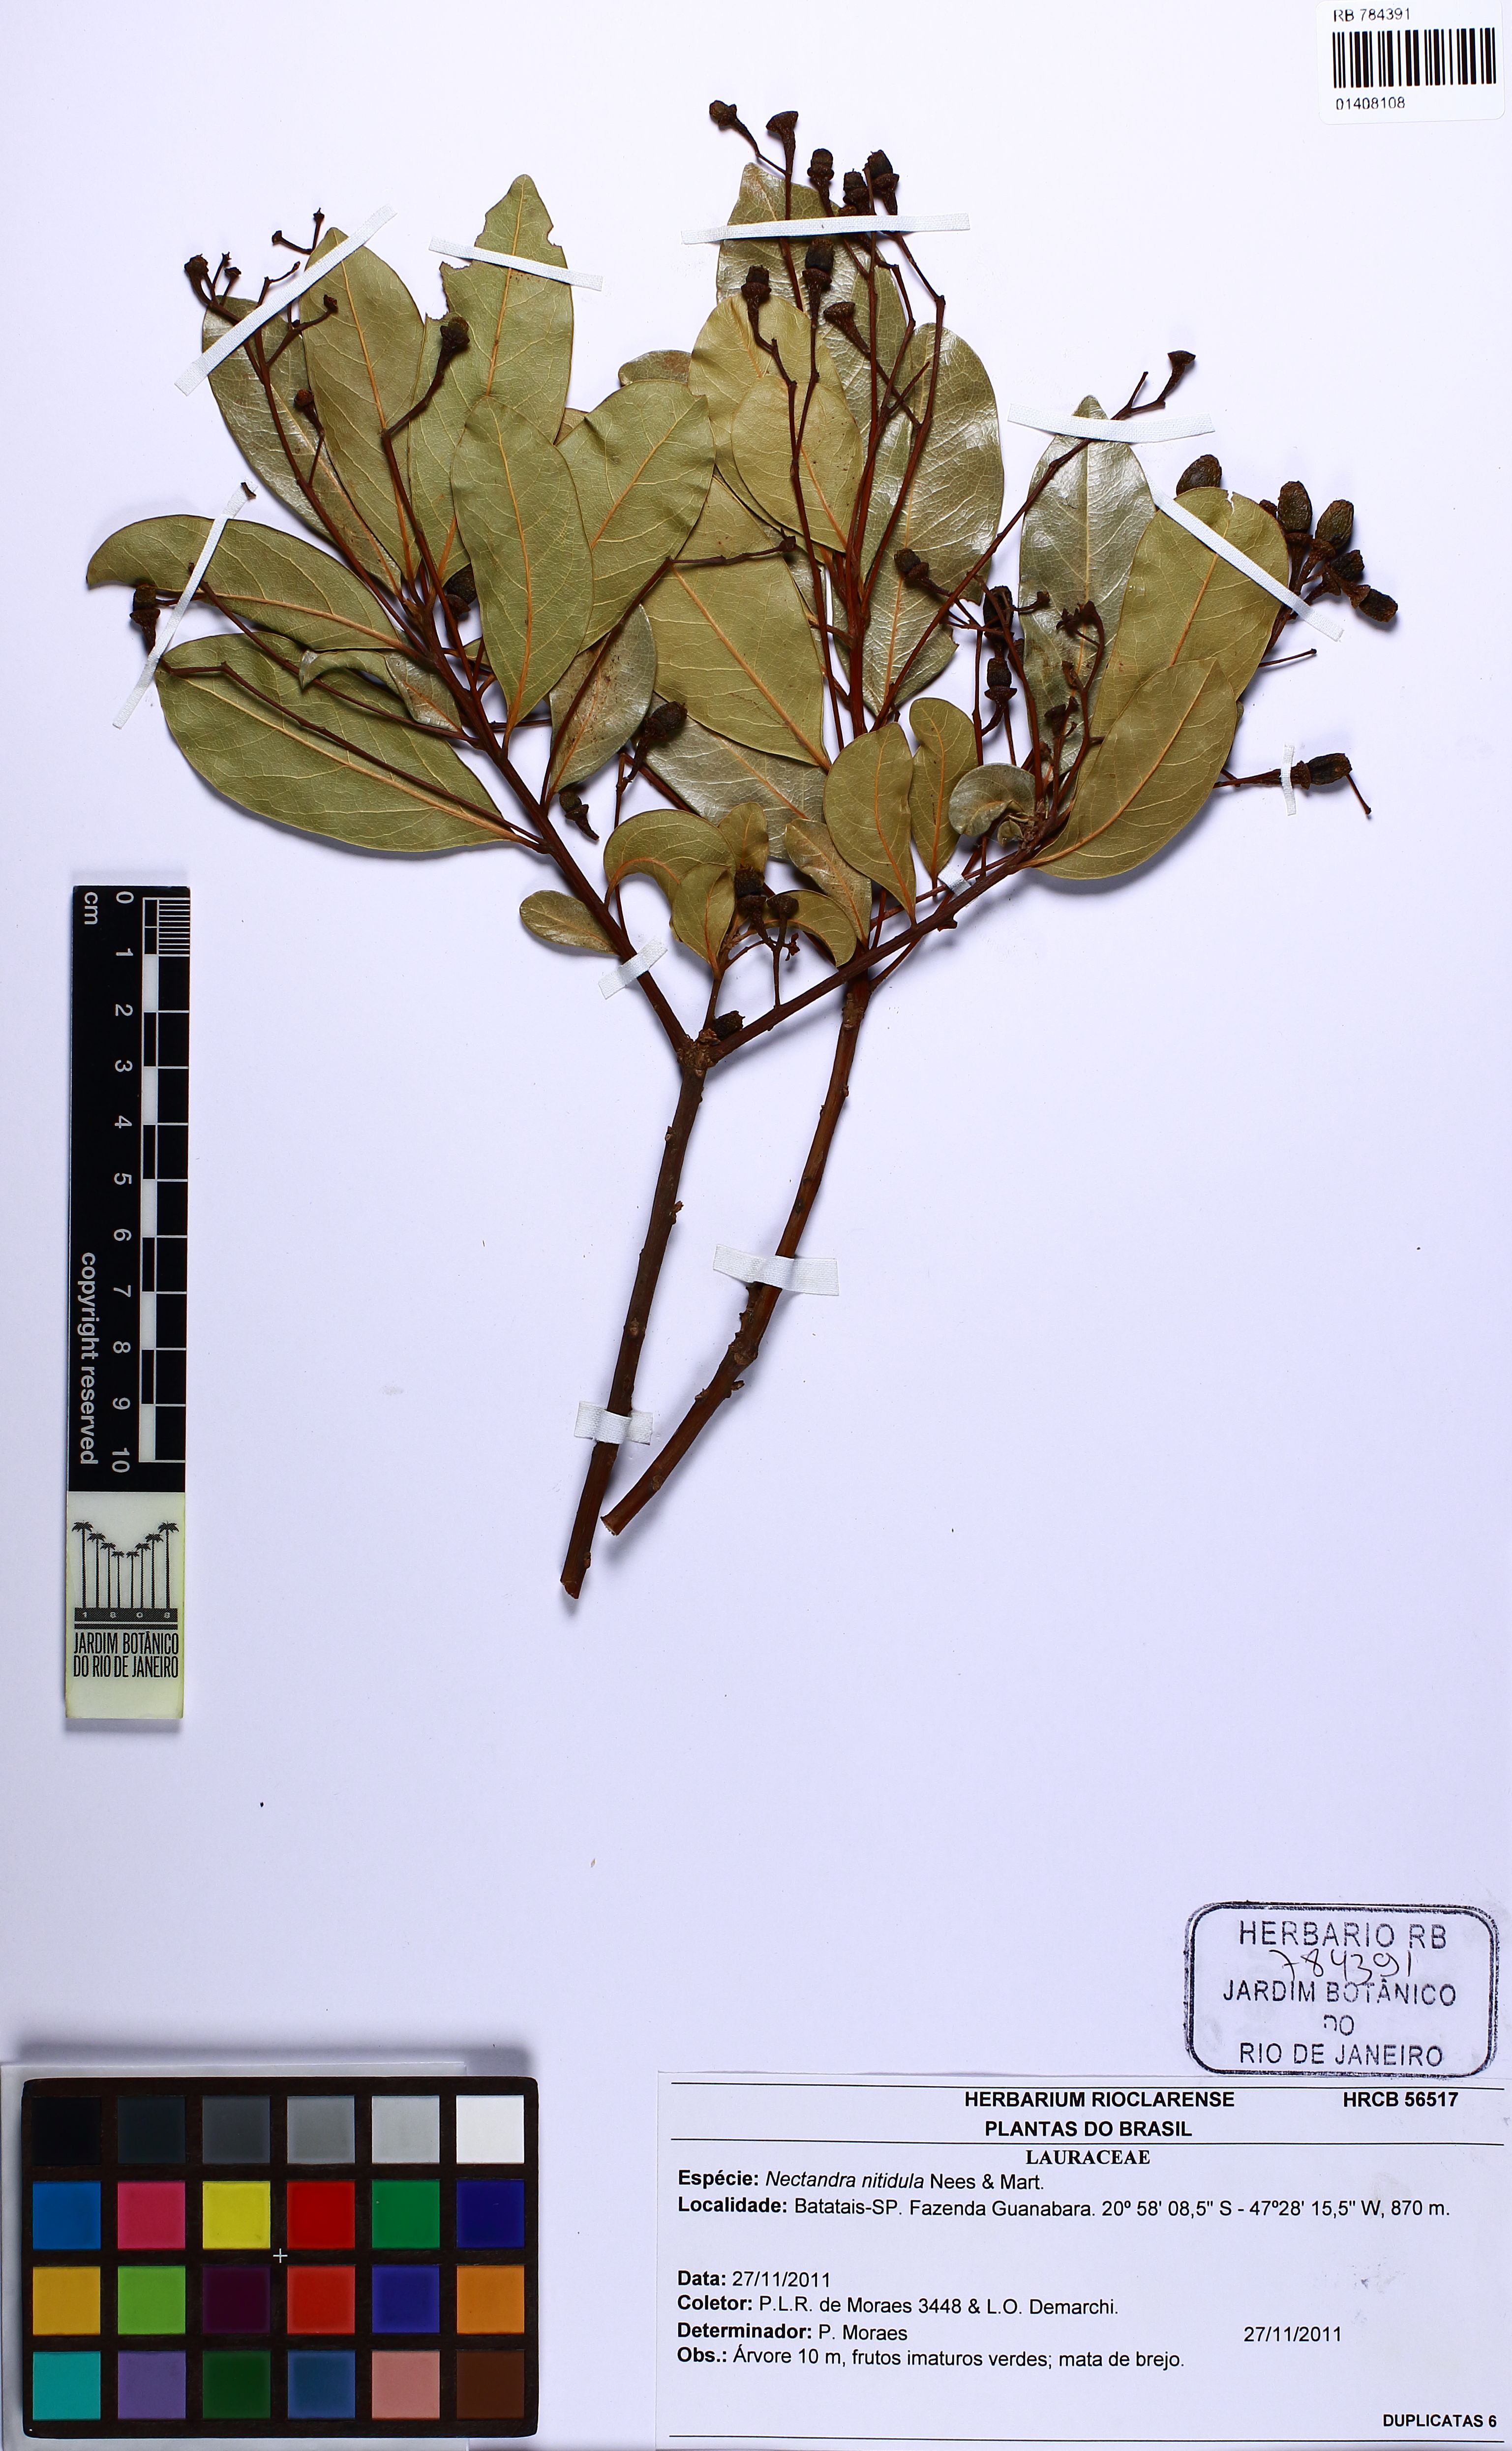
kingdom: Plantae
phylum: Tracheophyta
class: Magnoliopsida
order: Laurales
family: Lauraceae
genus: Nectandra
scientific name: Nectandra nitidula
